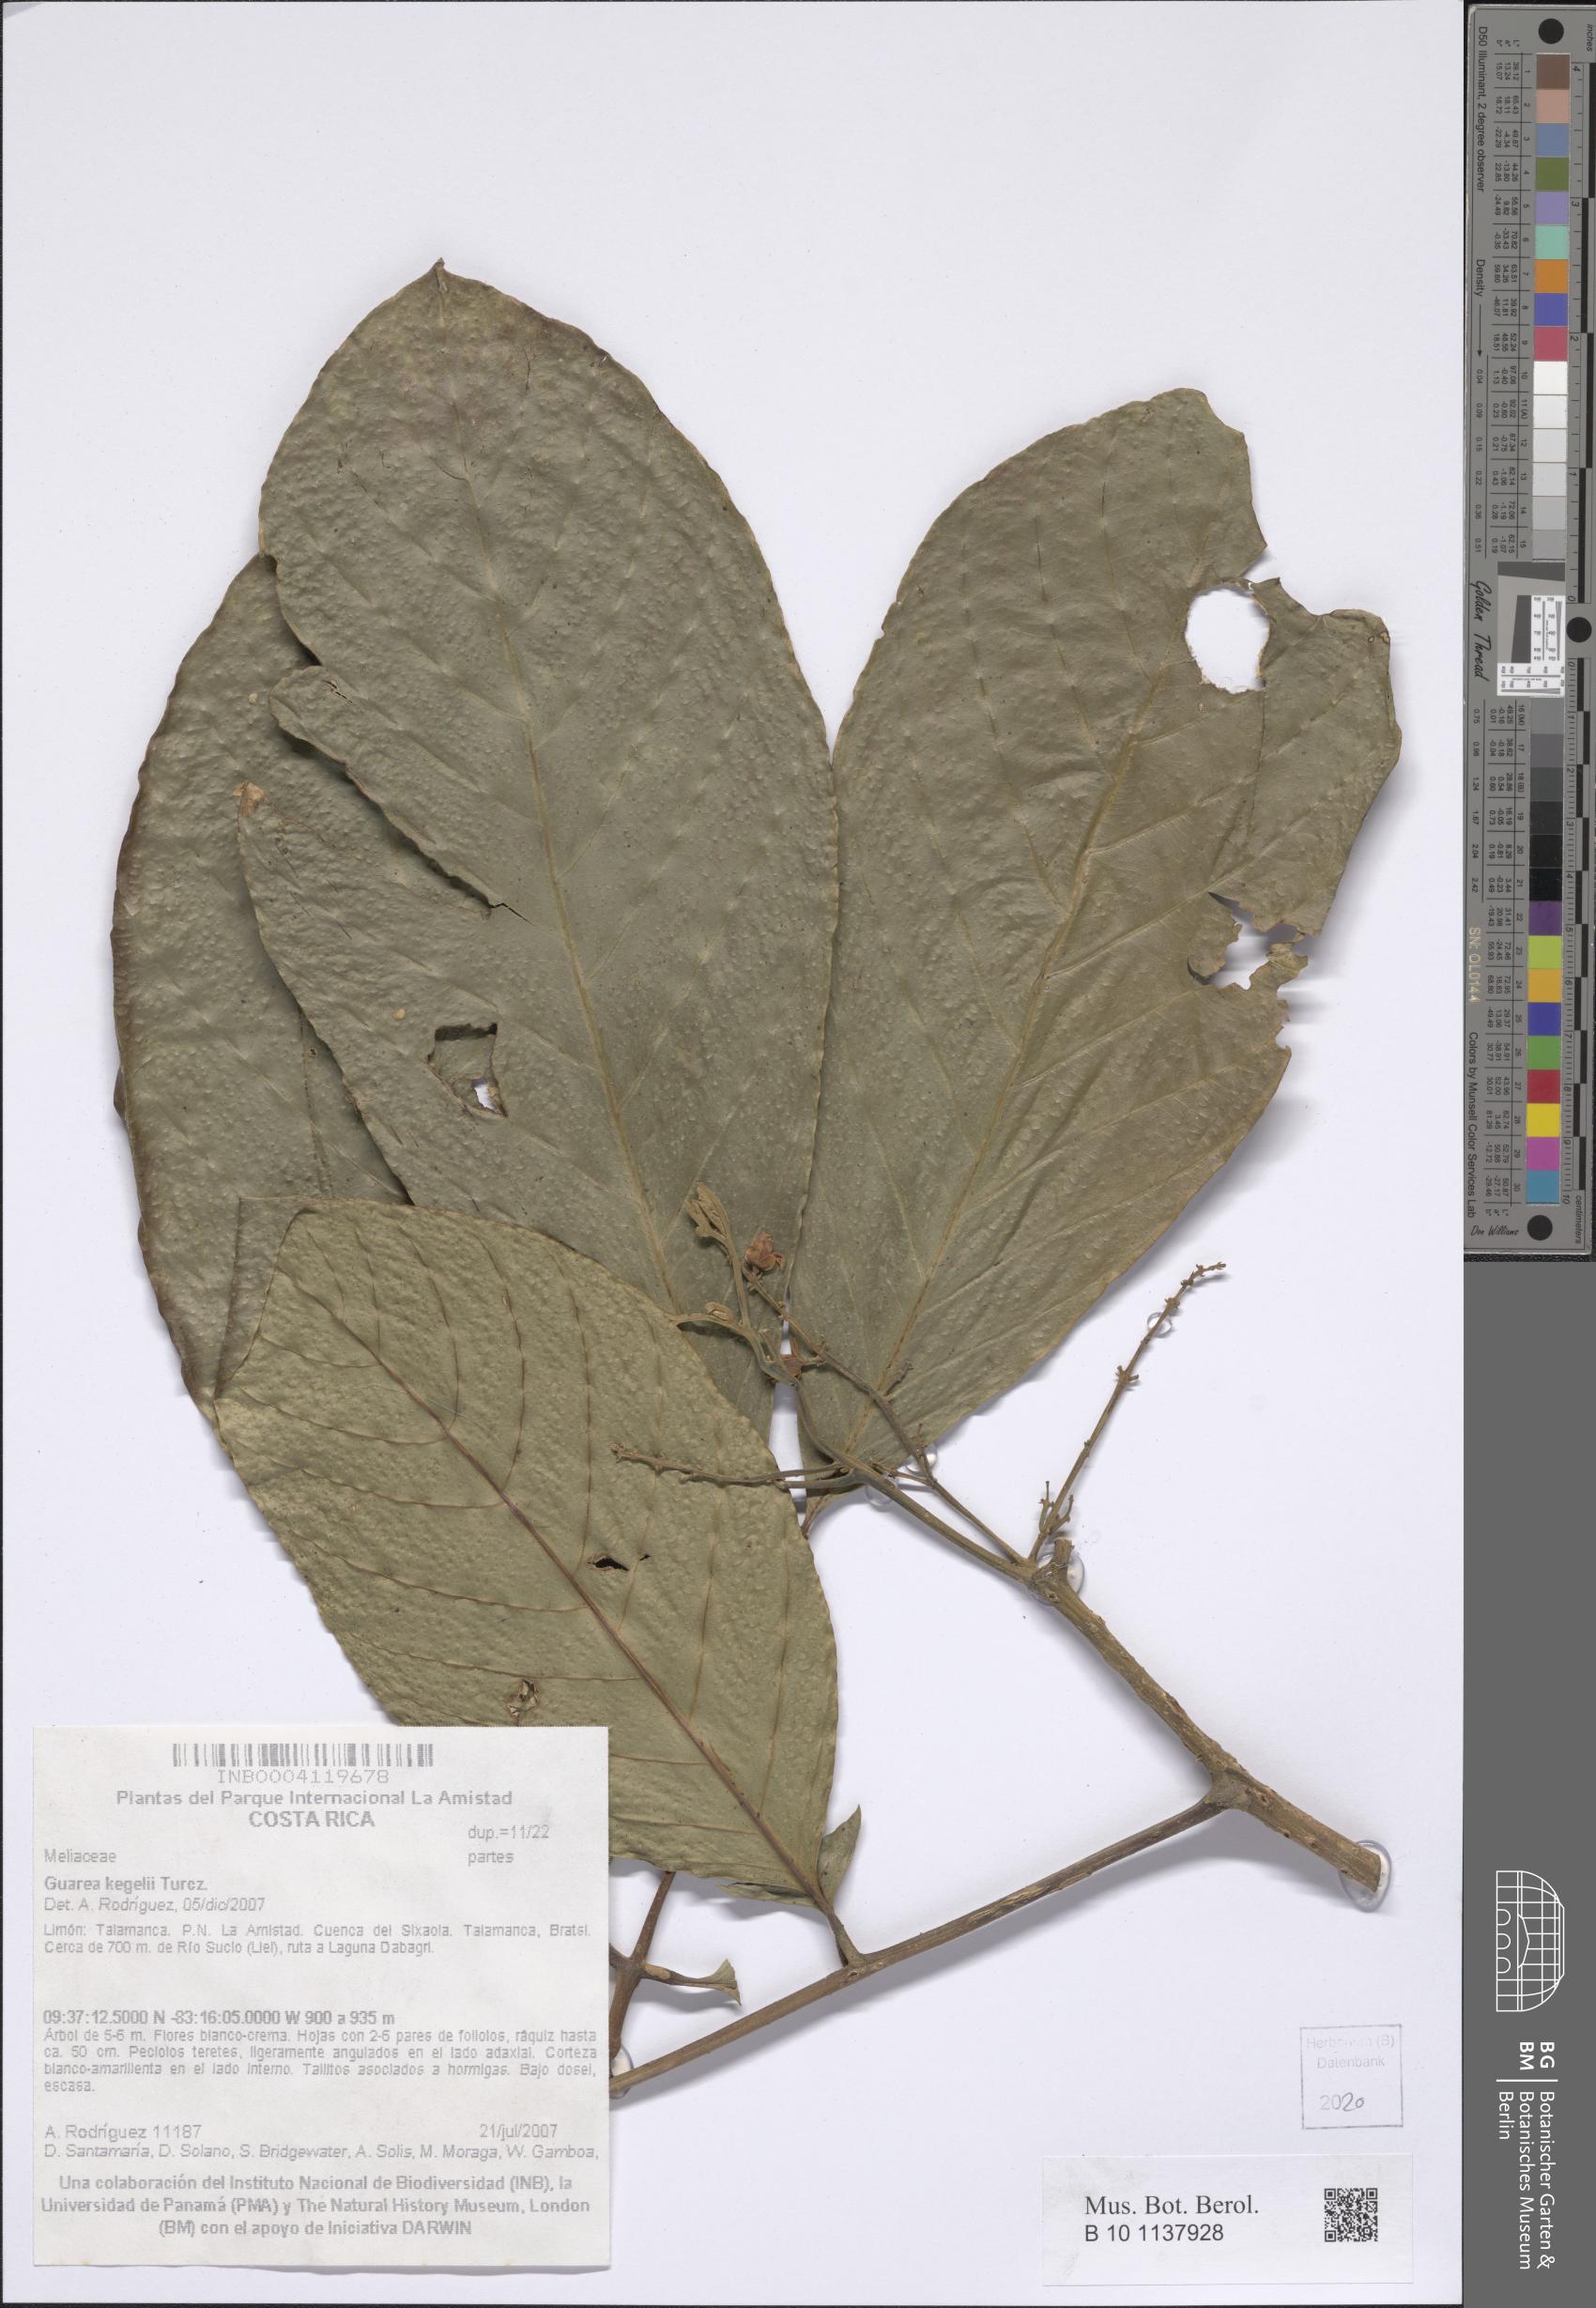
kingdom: Plantae
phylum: Tracheophyta
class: Magnoliopsida
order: Sapindales
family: Meliaceae
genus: Guarea
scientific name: Guarea glabra
